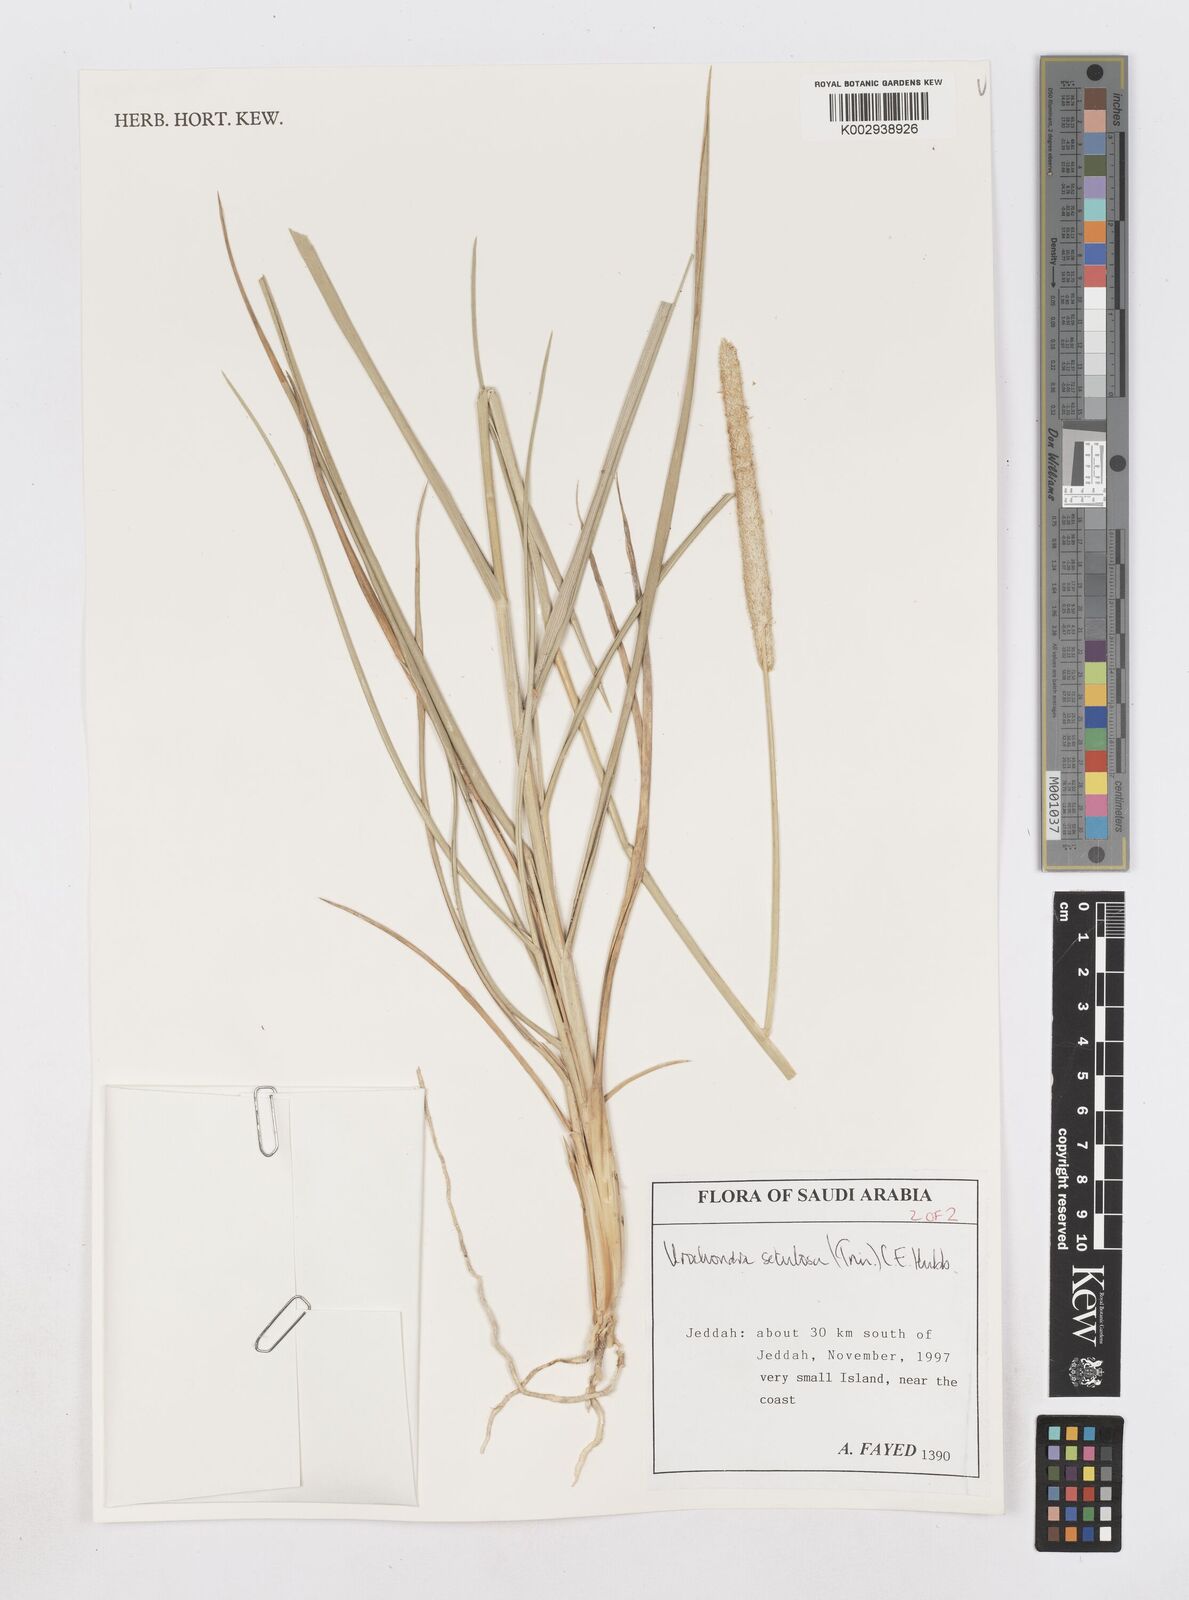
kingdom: Plantae
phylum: Tracheophyta
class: Liliopsida
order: Poales
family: Poaceae
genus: Urochondra
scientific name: Urochondra setulosa
